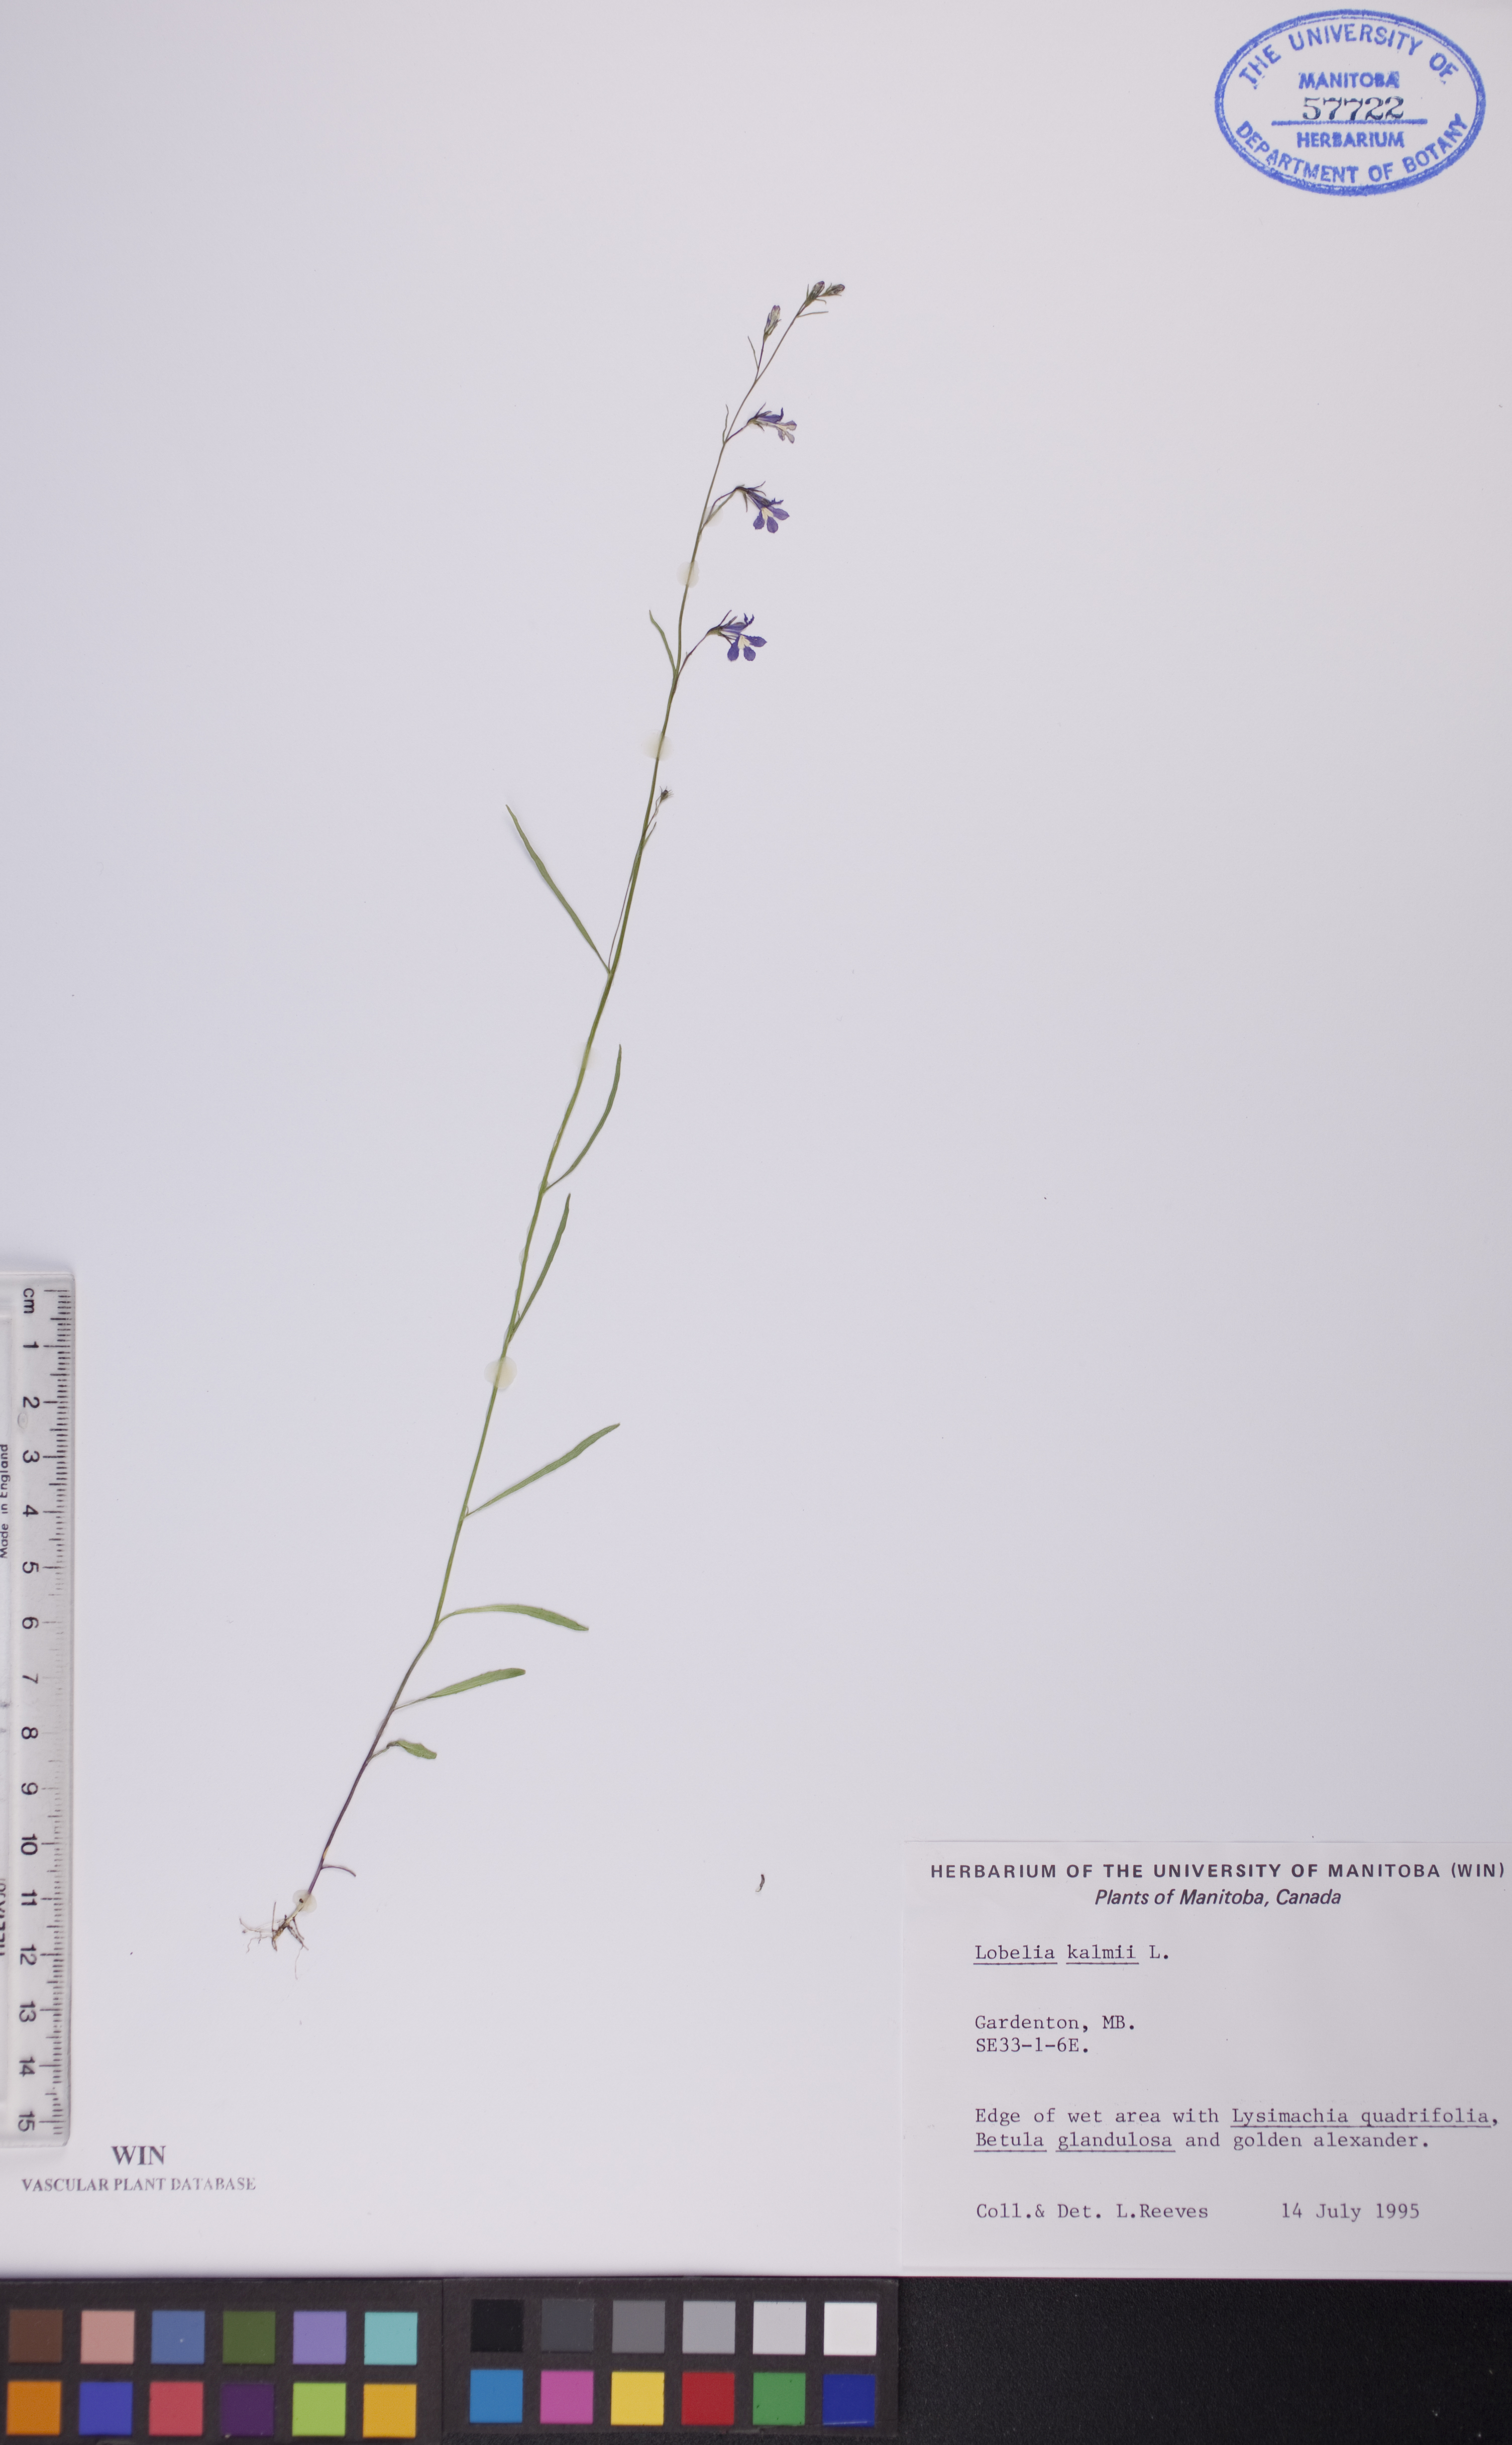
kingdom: Plantae
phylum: Tracheophyta
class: Magnoliopsida
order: Asterales
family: Campanulaceae
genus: Lobelia
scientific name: Lobelia kalmii
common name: Kalm's lobelia
